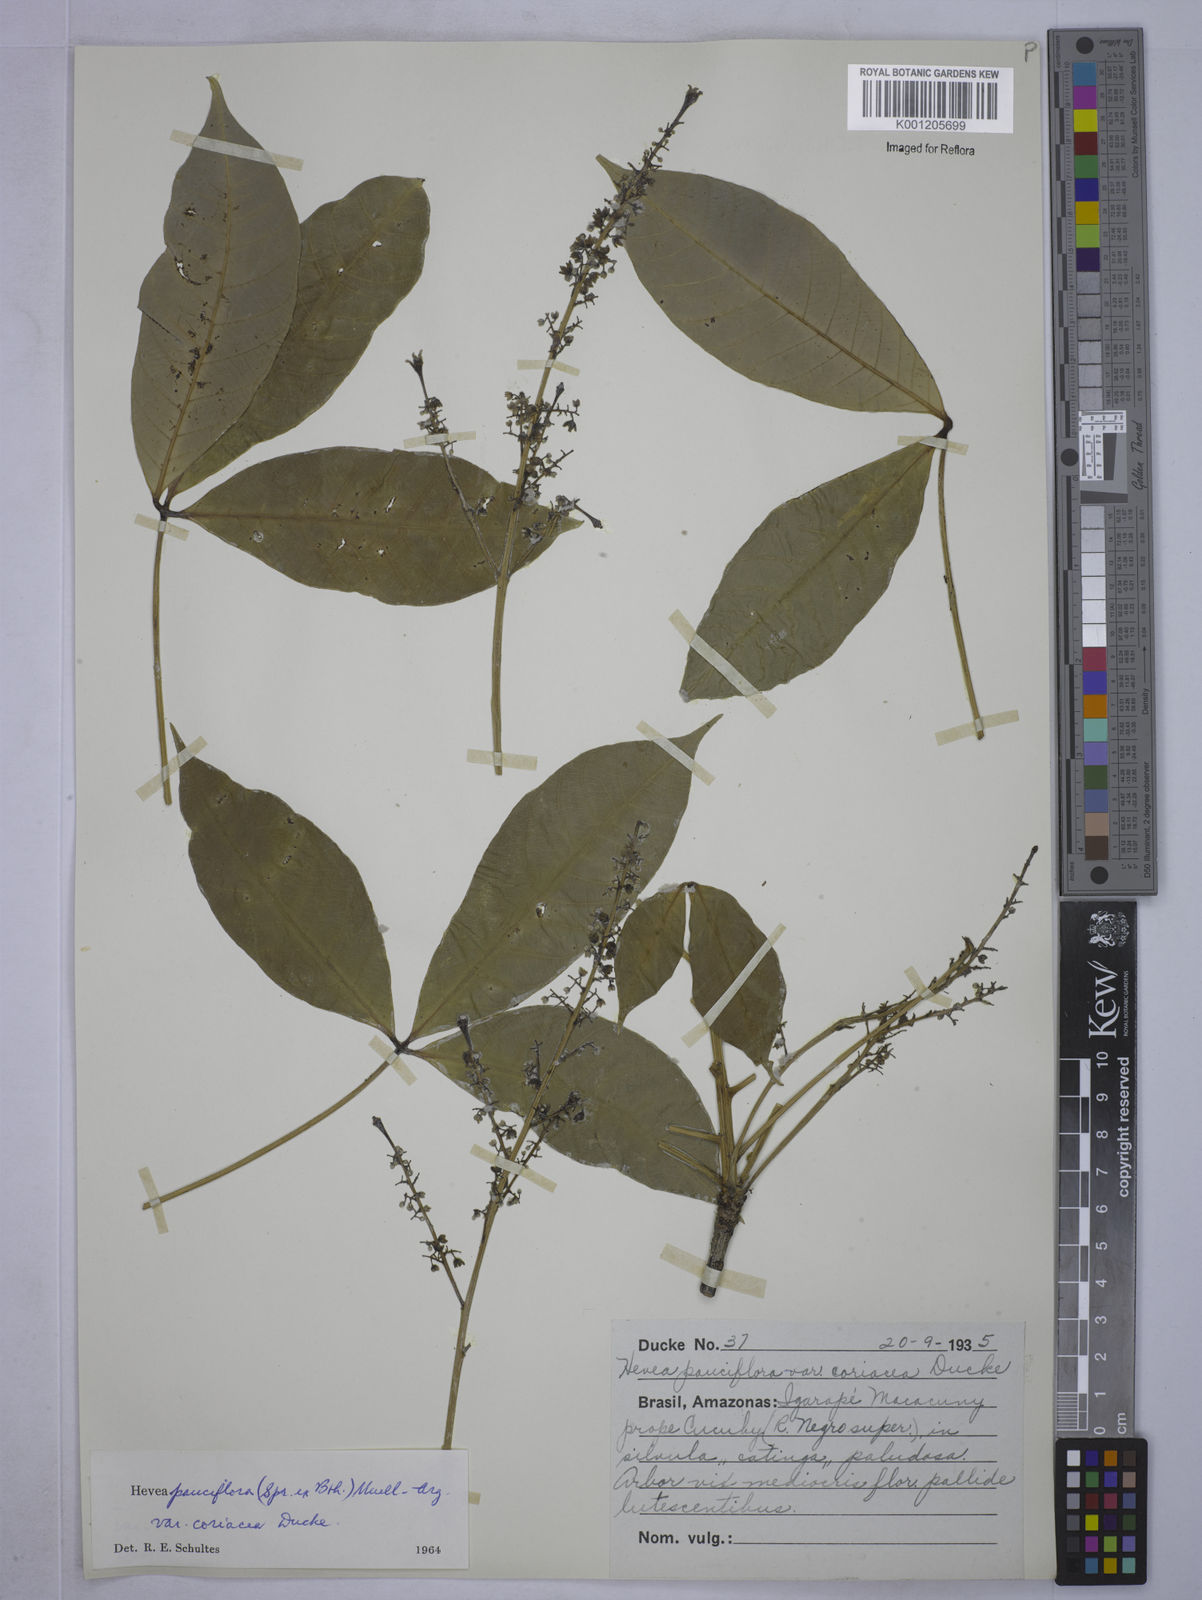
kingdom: Plantae
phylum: Tracheophyta
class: Magnoliopsida
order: Malpighiales
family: Euphorbiaceae
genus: Hevea
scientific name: Hevea pauciflora
